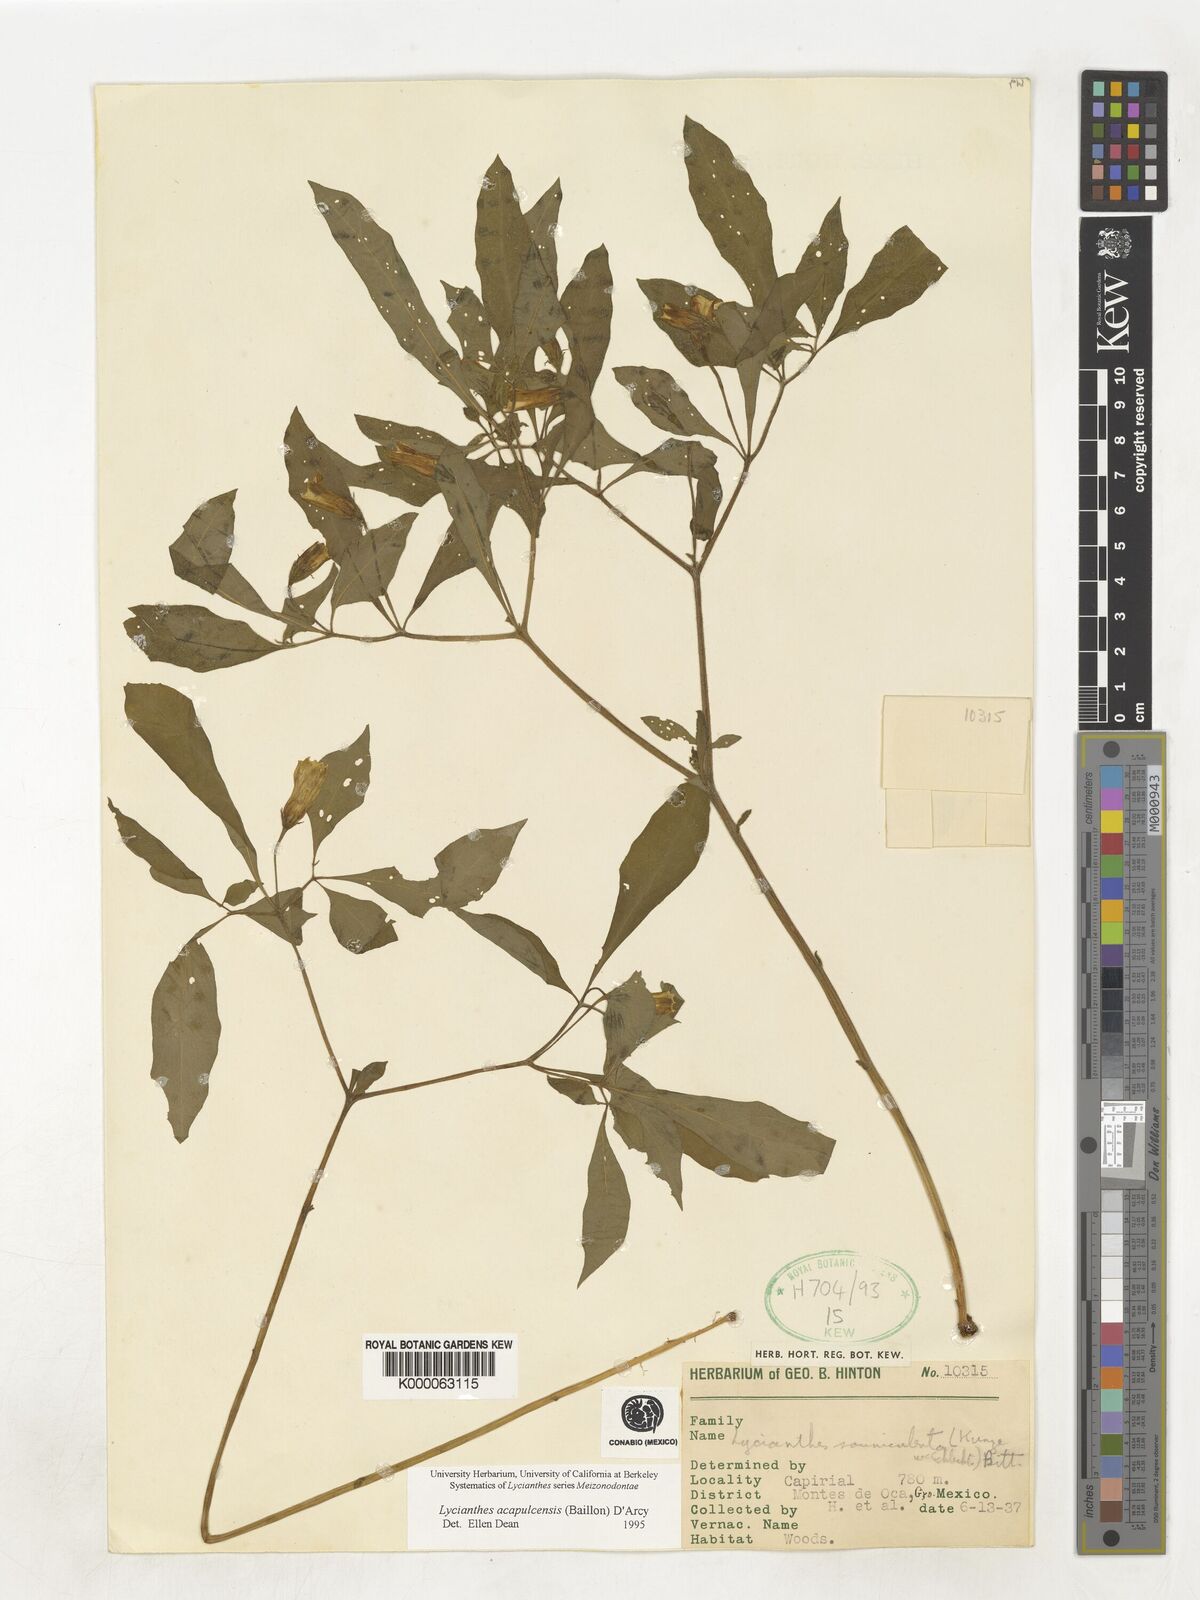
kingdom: Plantae
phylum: Tracheophyta
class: Magnoliopsida
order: Solanales
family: Solanaceae
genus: Lycianthes
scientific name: Lycianthes acapulcensis
